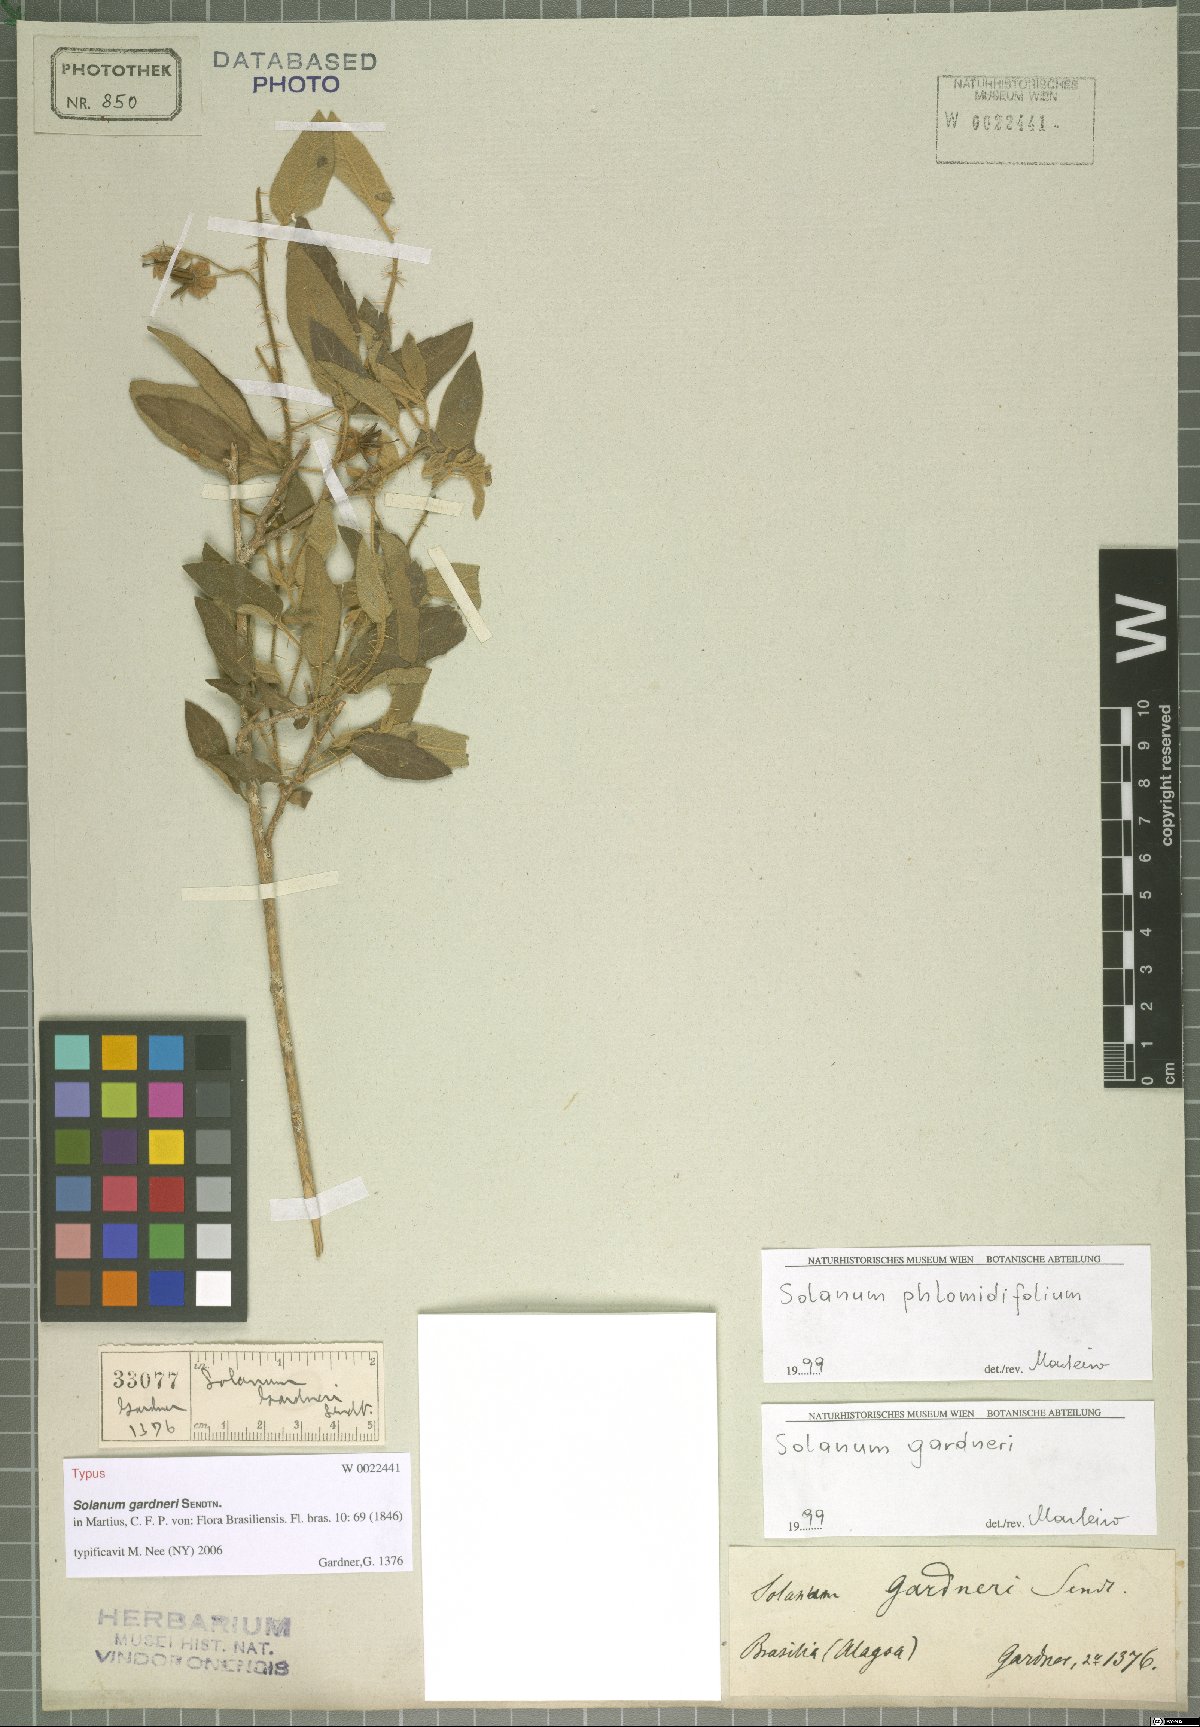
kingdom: Plantae
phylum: Tracheophyta
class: Magnoliopsida
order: Solanales
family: Solanaceae
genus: Solanum
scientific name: Solanum gardneri
